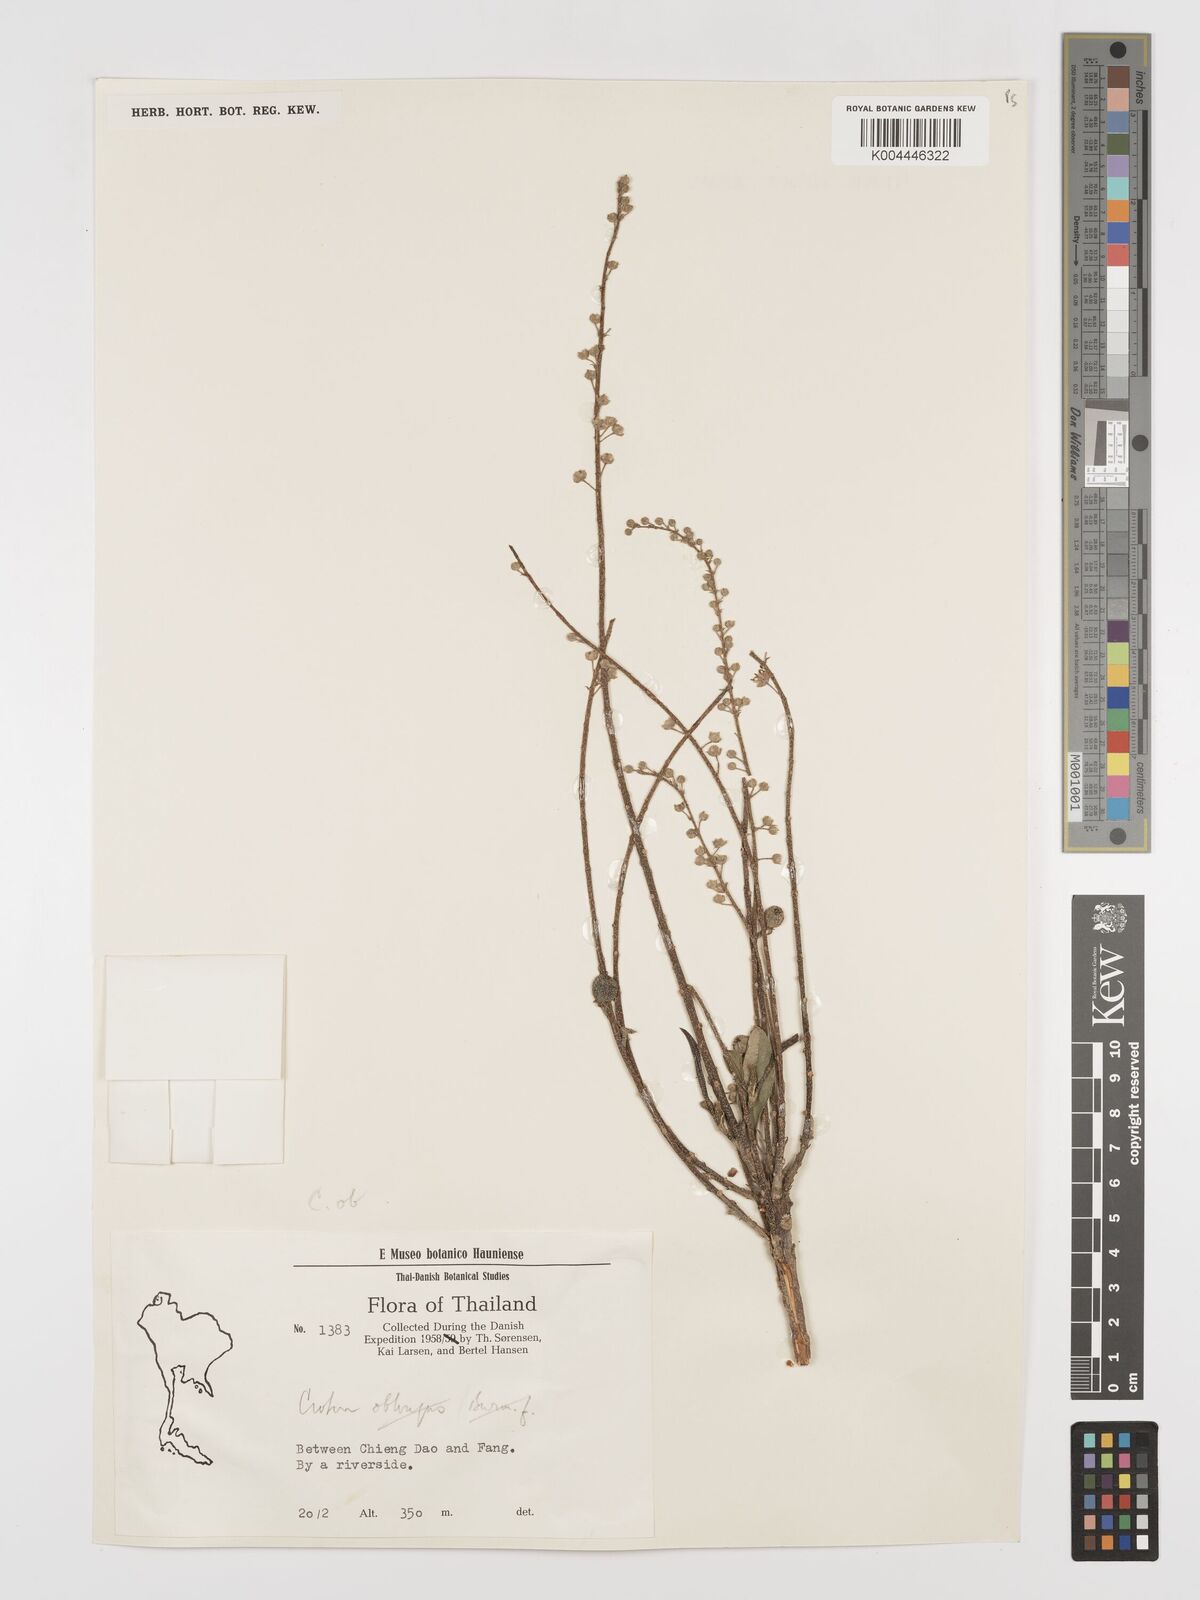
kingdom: Plantae
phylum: Tracheophyta
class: Magnoliopsida
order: Malpighiales
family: Euphorbiaceae
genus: Baliospermum
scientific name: Baliospermum solanifolium
